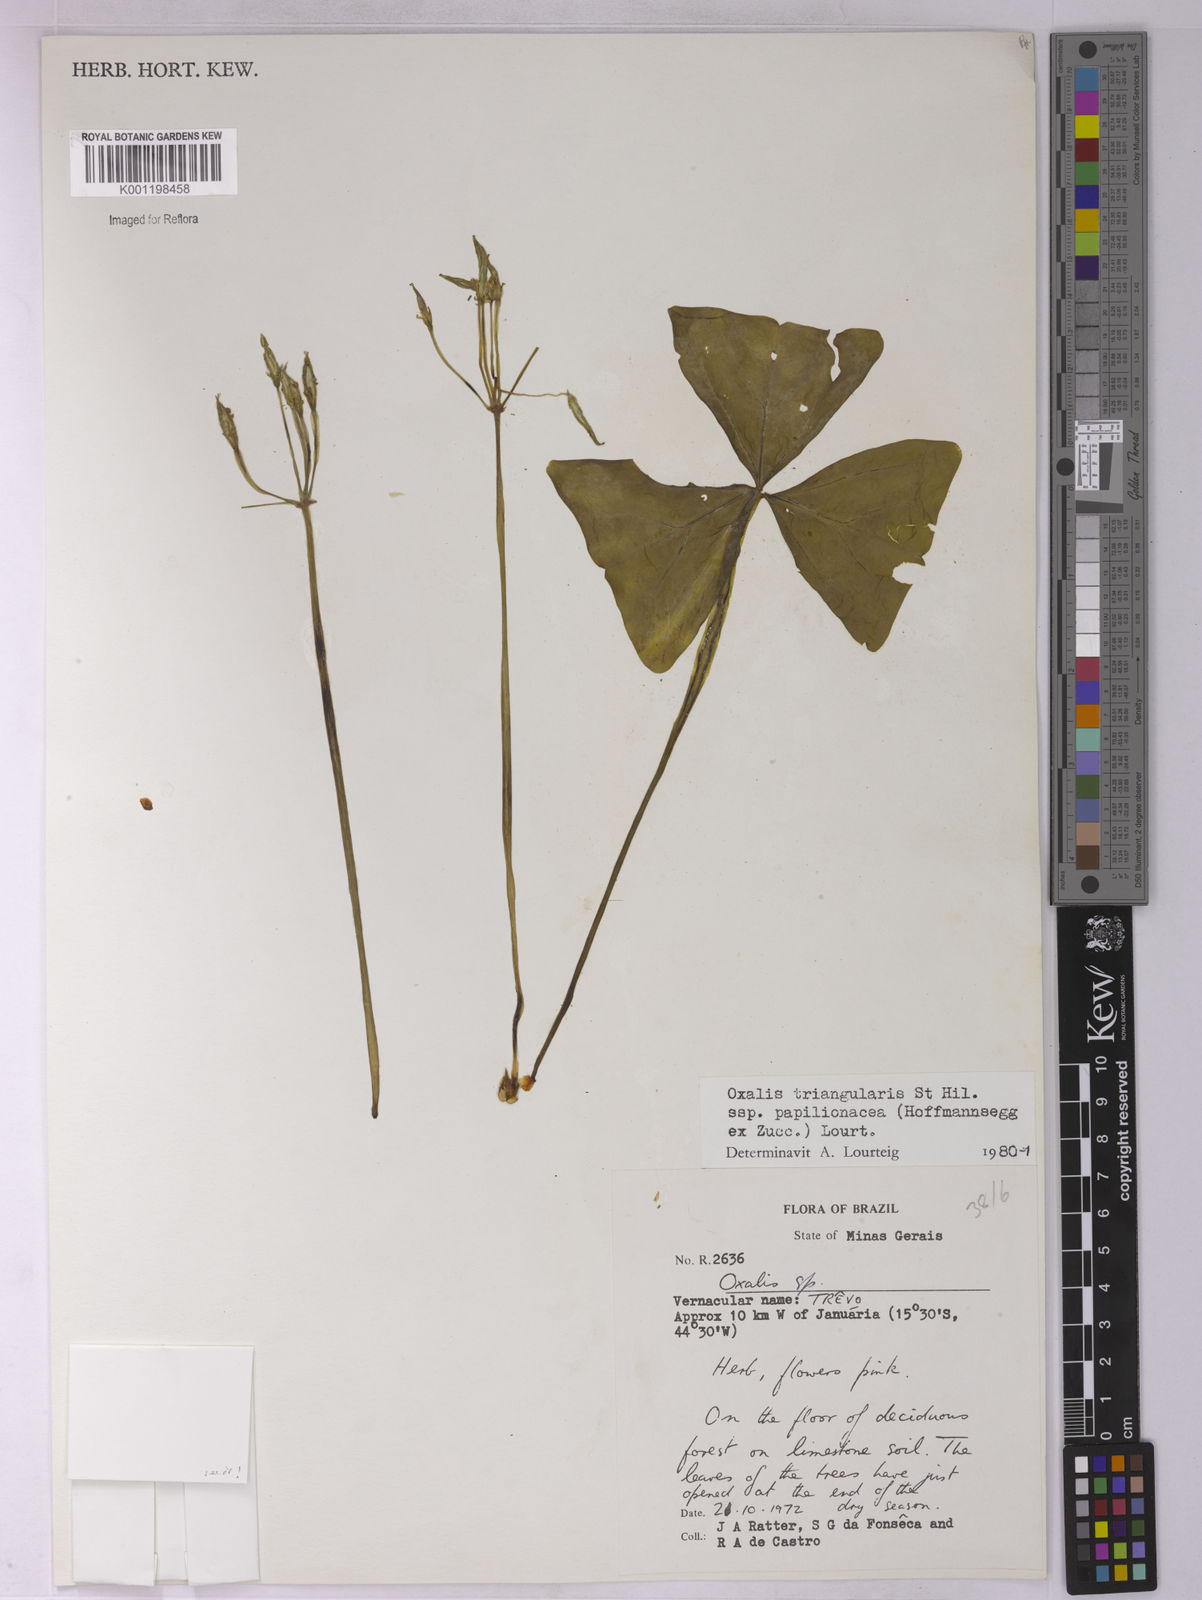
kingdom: Plantae
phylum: Tracheophyta
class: Magnoliopsida
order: Oxalidales
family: Oxalidaceae
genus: Oxalis
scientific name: Oxalis triangularis
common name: Wood sorrel
